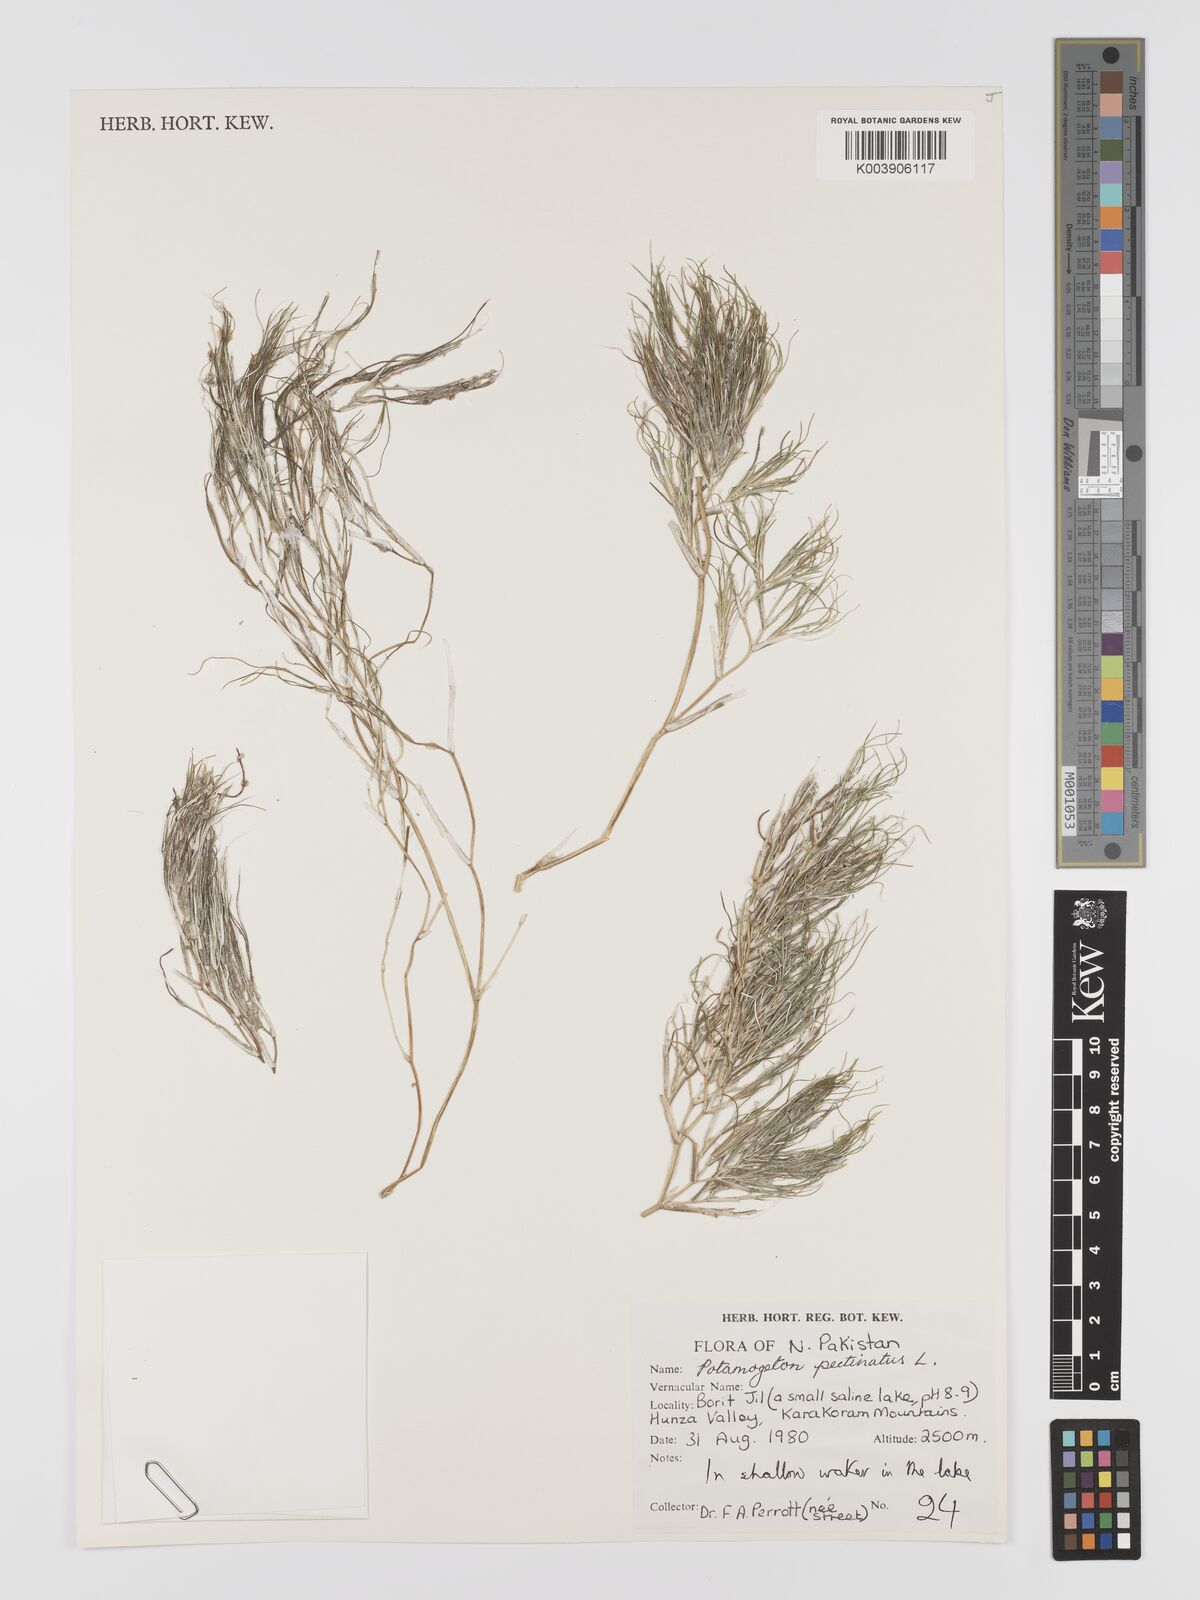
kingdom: Plantae
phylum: Tracheophyta
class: Liliopsida
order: Alismatales
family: Potamogetonaceae
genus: Stuckenia
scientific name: Stuckenia pectinata
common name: Sago pondweed
